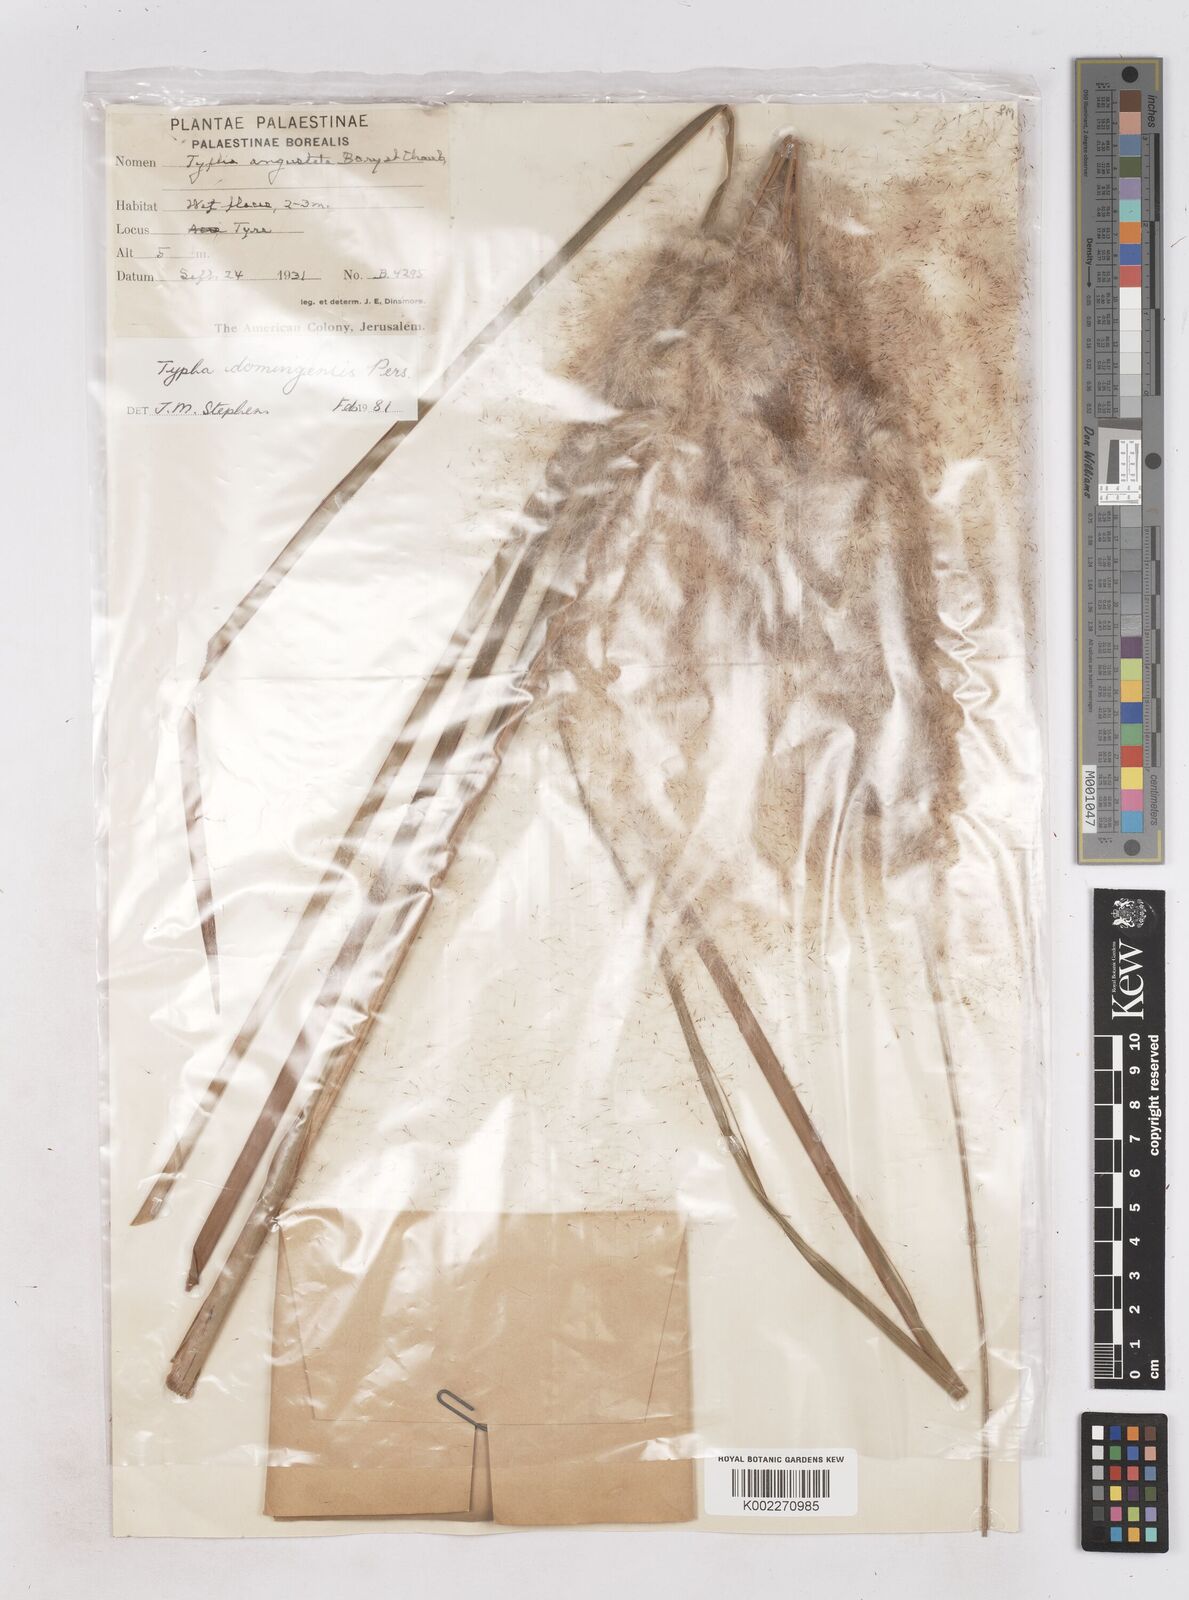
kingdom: Plantae
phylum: Tracheophyta
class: Liliopsida
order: Poales
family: Typhaceae
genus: Typha
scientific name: Typha domingensis
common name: Southern cattail
